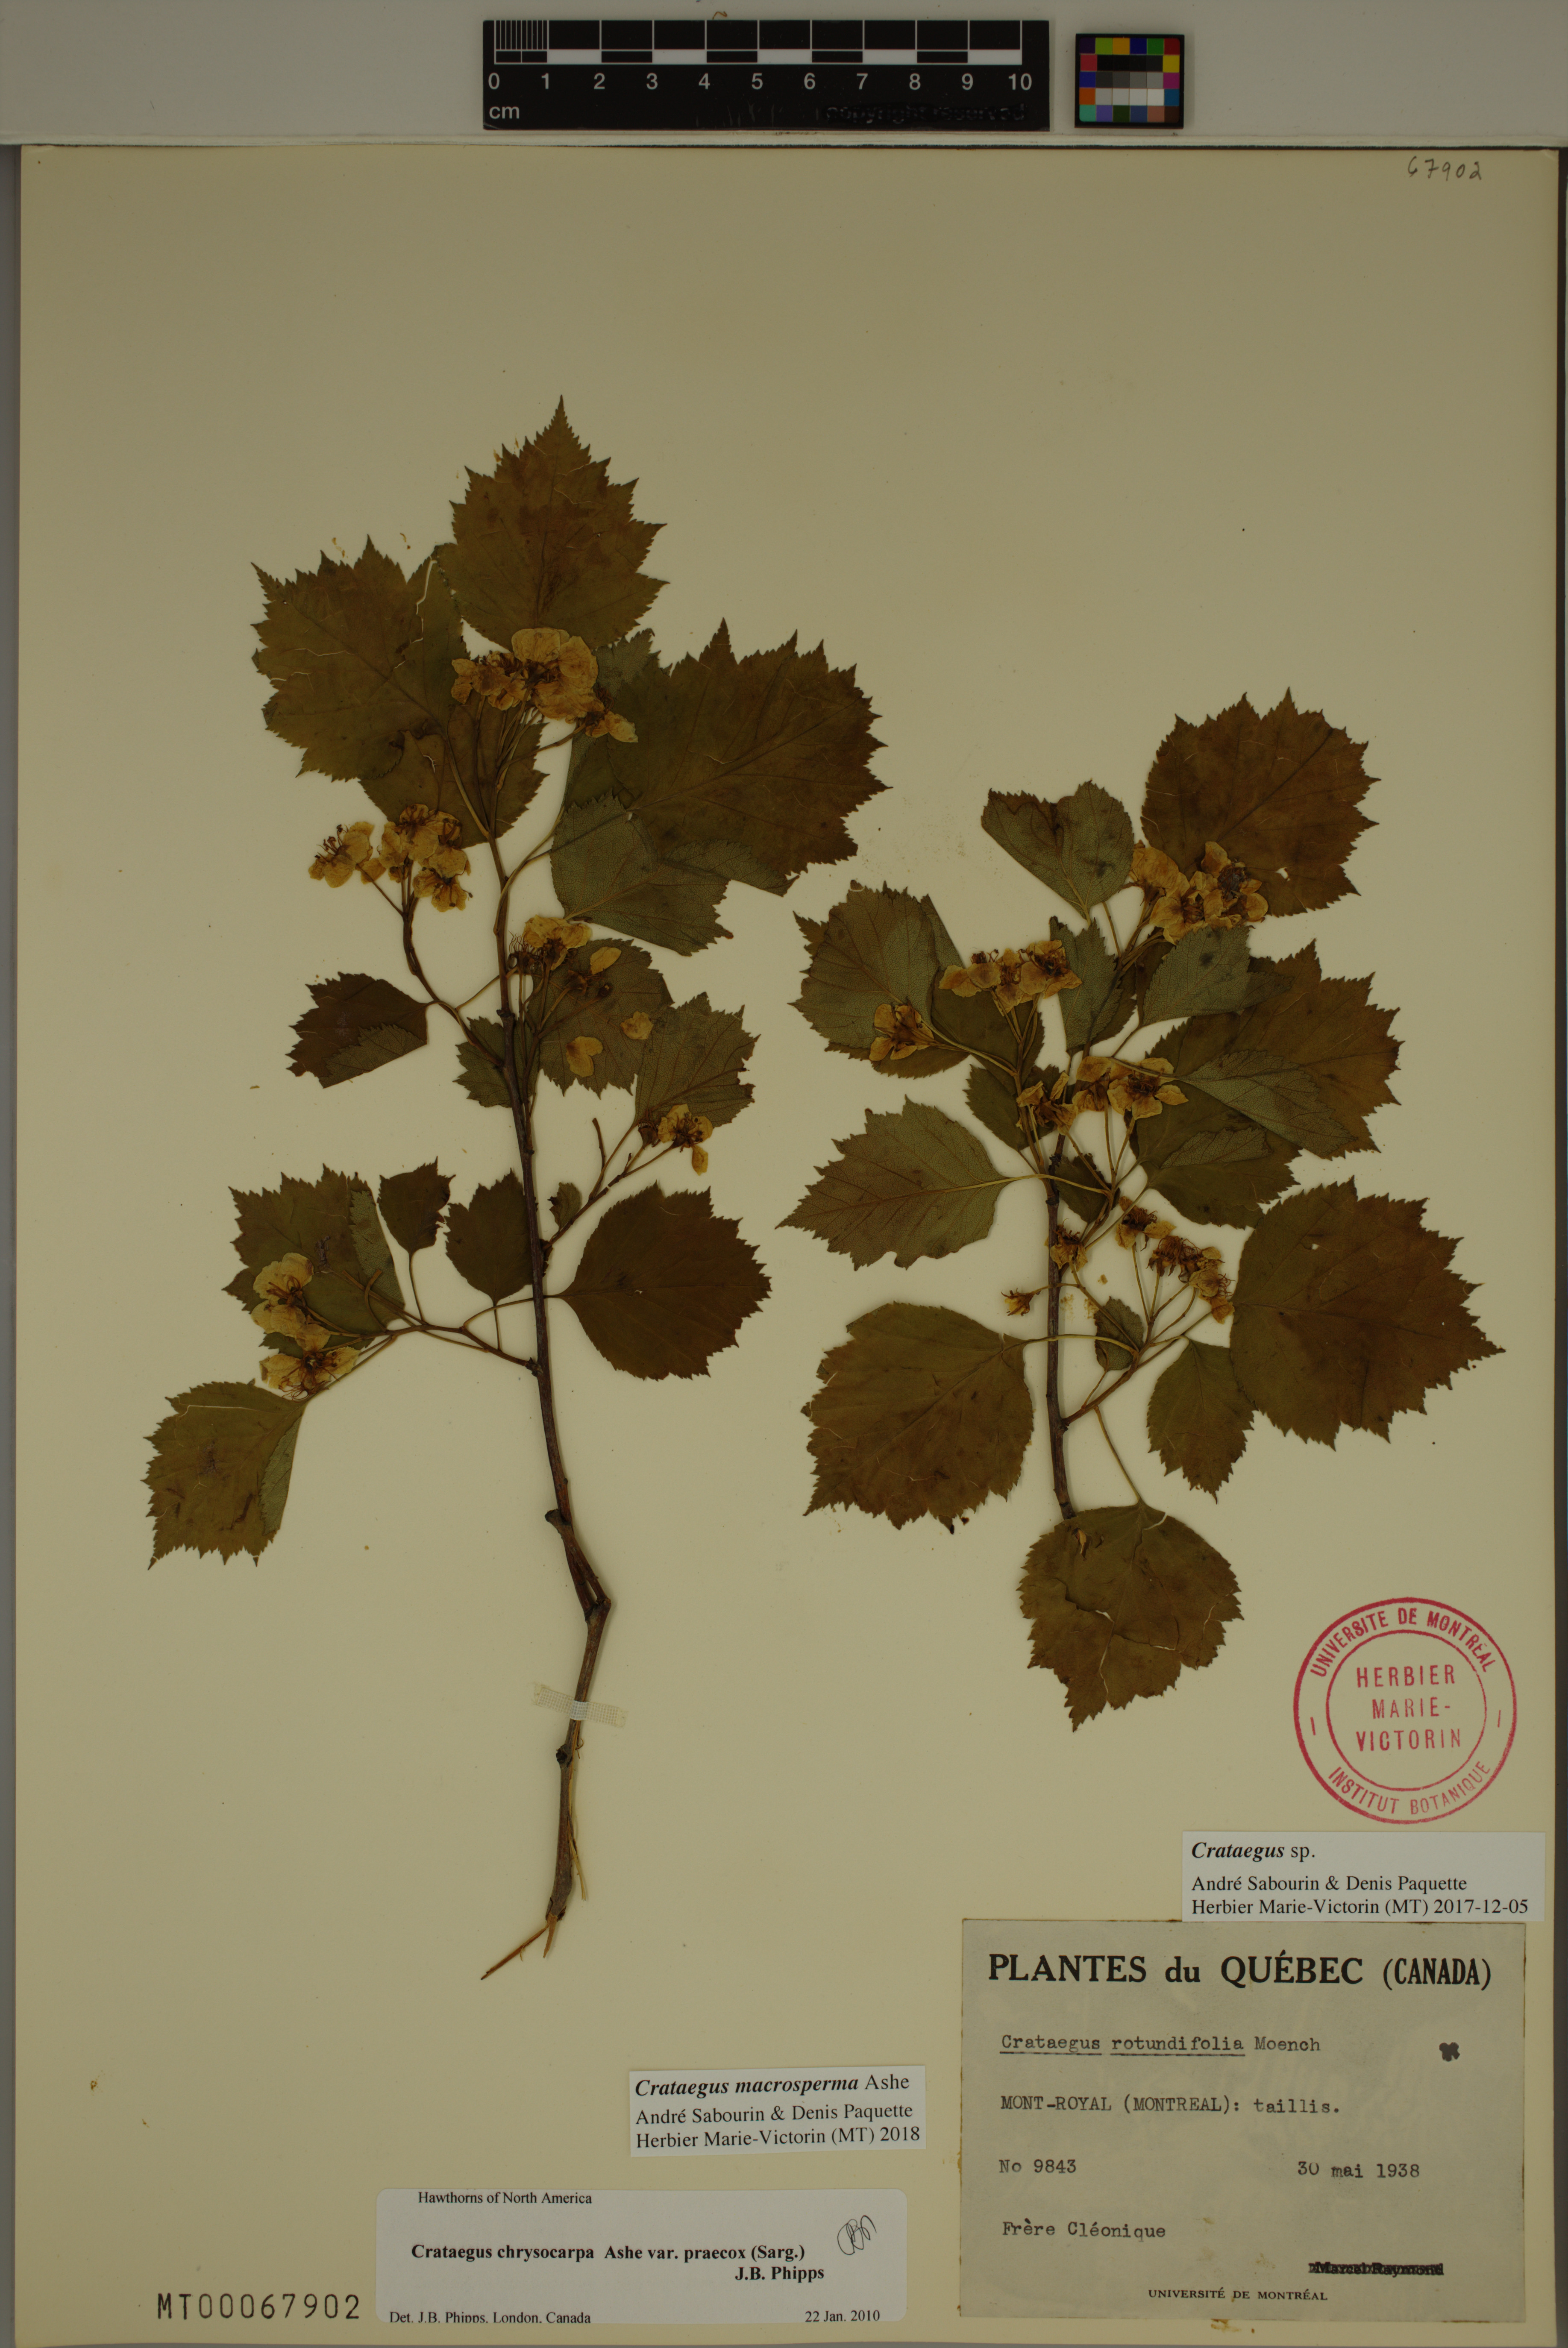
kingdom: Plantae
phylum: Tracheophyta
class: Magnoliopsida
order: Rosales
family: Rosaceae
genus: Crataegus
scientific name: Crataegus macrosperma
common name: Variable hawthorn
